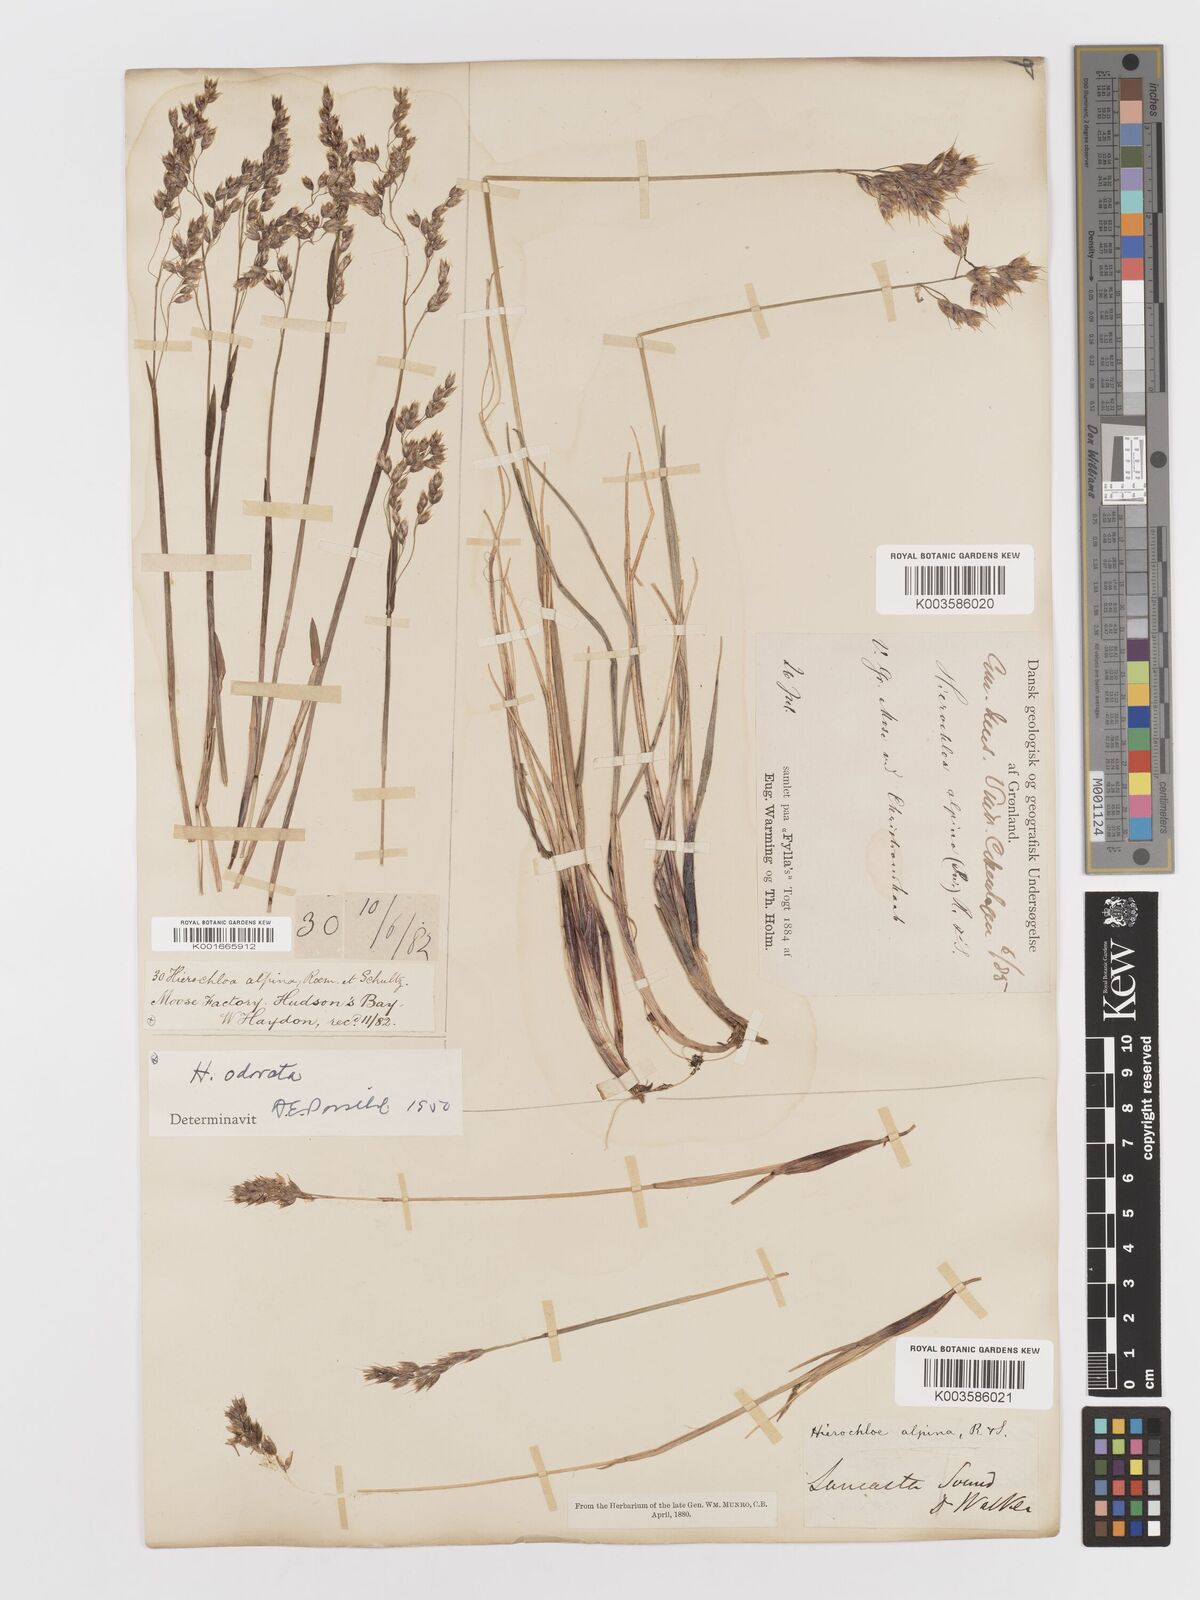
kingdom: Plantae
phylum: Tracheophyta
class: Liliopsida
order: Poales
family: Poaceae
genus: Anthoxanthum
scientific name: Anthoxanthum monticola
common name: Alpine sweetgrass
